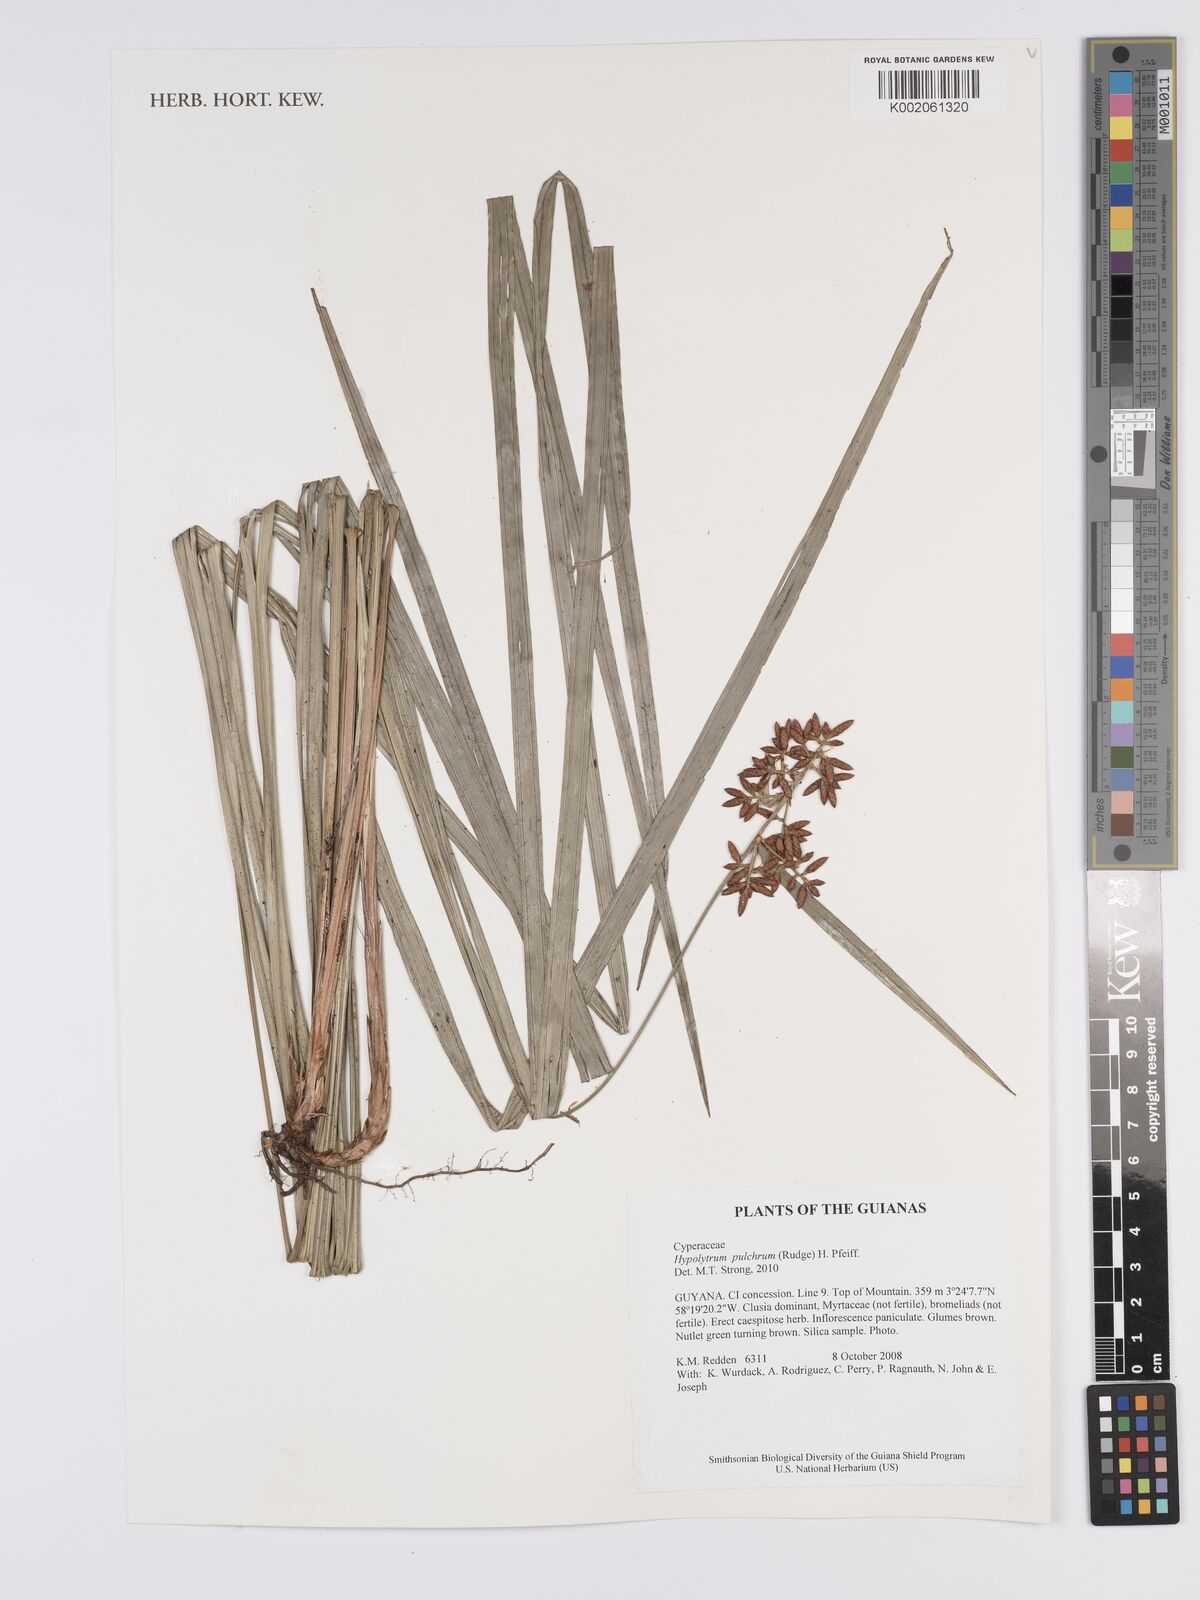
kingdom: Plantae
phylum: Tracheophyta
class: Liliopsida
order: Poales
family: Cyperaceae
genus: Hypolytrum
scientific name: Hypolytrum pulchrum
